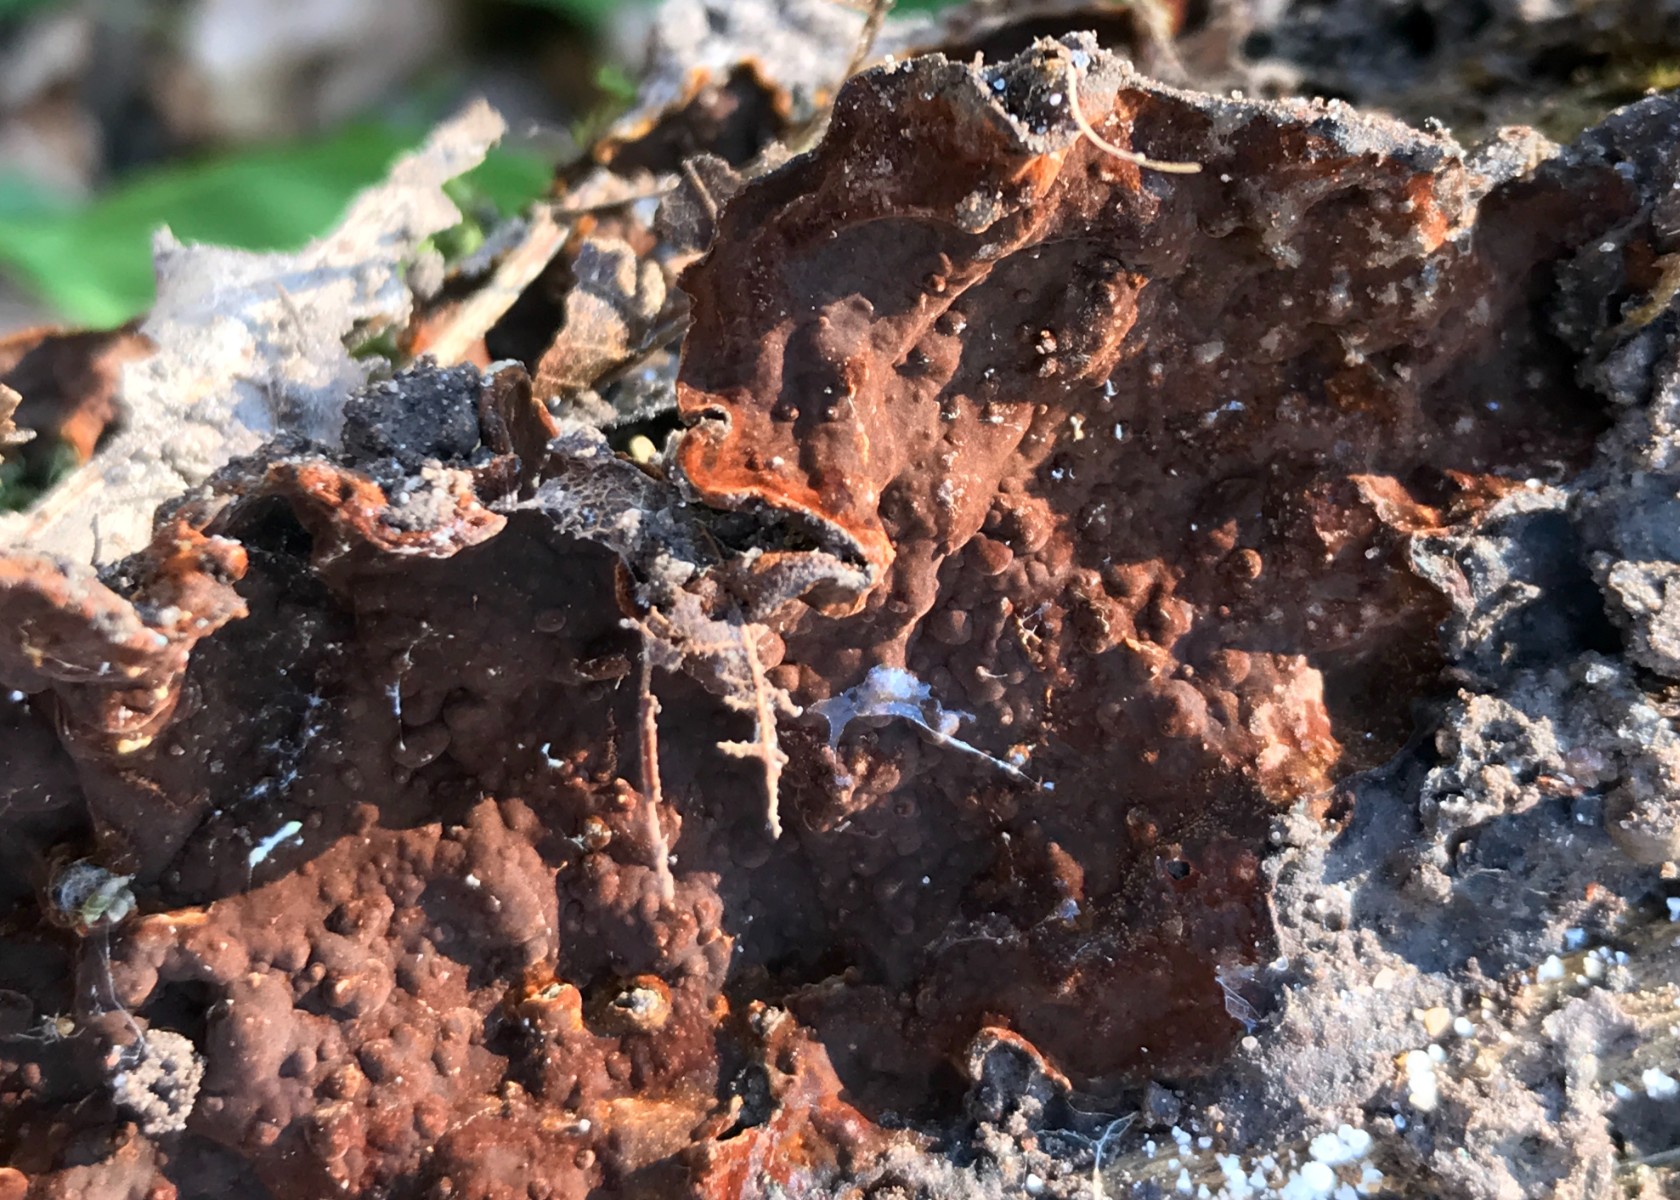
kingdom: Fungi
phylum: Basidiomycota
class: Agaricomycetes
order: Hymenochaetales
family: Hymenochaetaceae
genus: Hymenochaete
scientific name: Hymenochaete rubiginosa
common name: stiv ruslædersvamp
